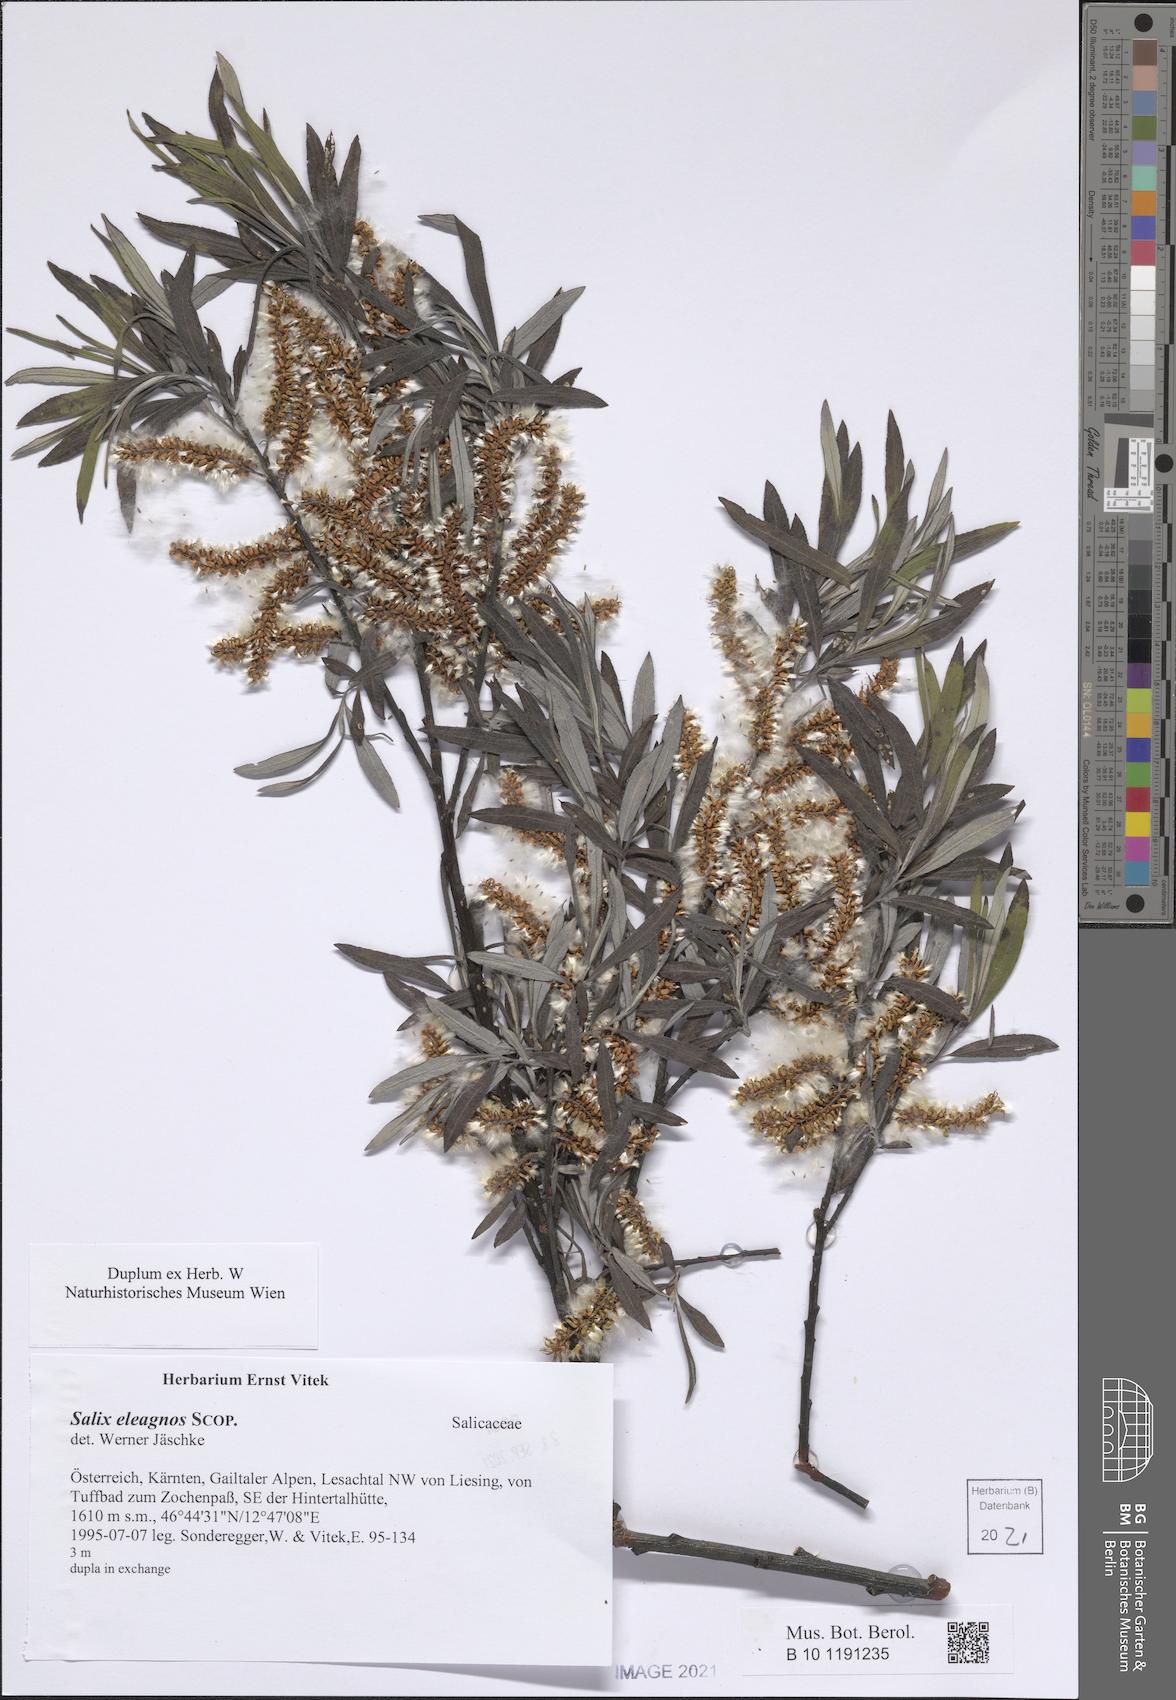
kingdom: Plantae
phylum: Tracheophyta
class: Magnoliopsida
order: Malpighiales
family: Salicaceae
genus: Salix
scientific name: Salix eleagnos
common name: Elaeagnus willow
